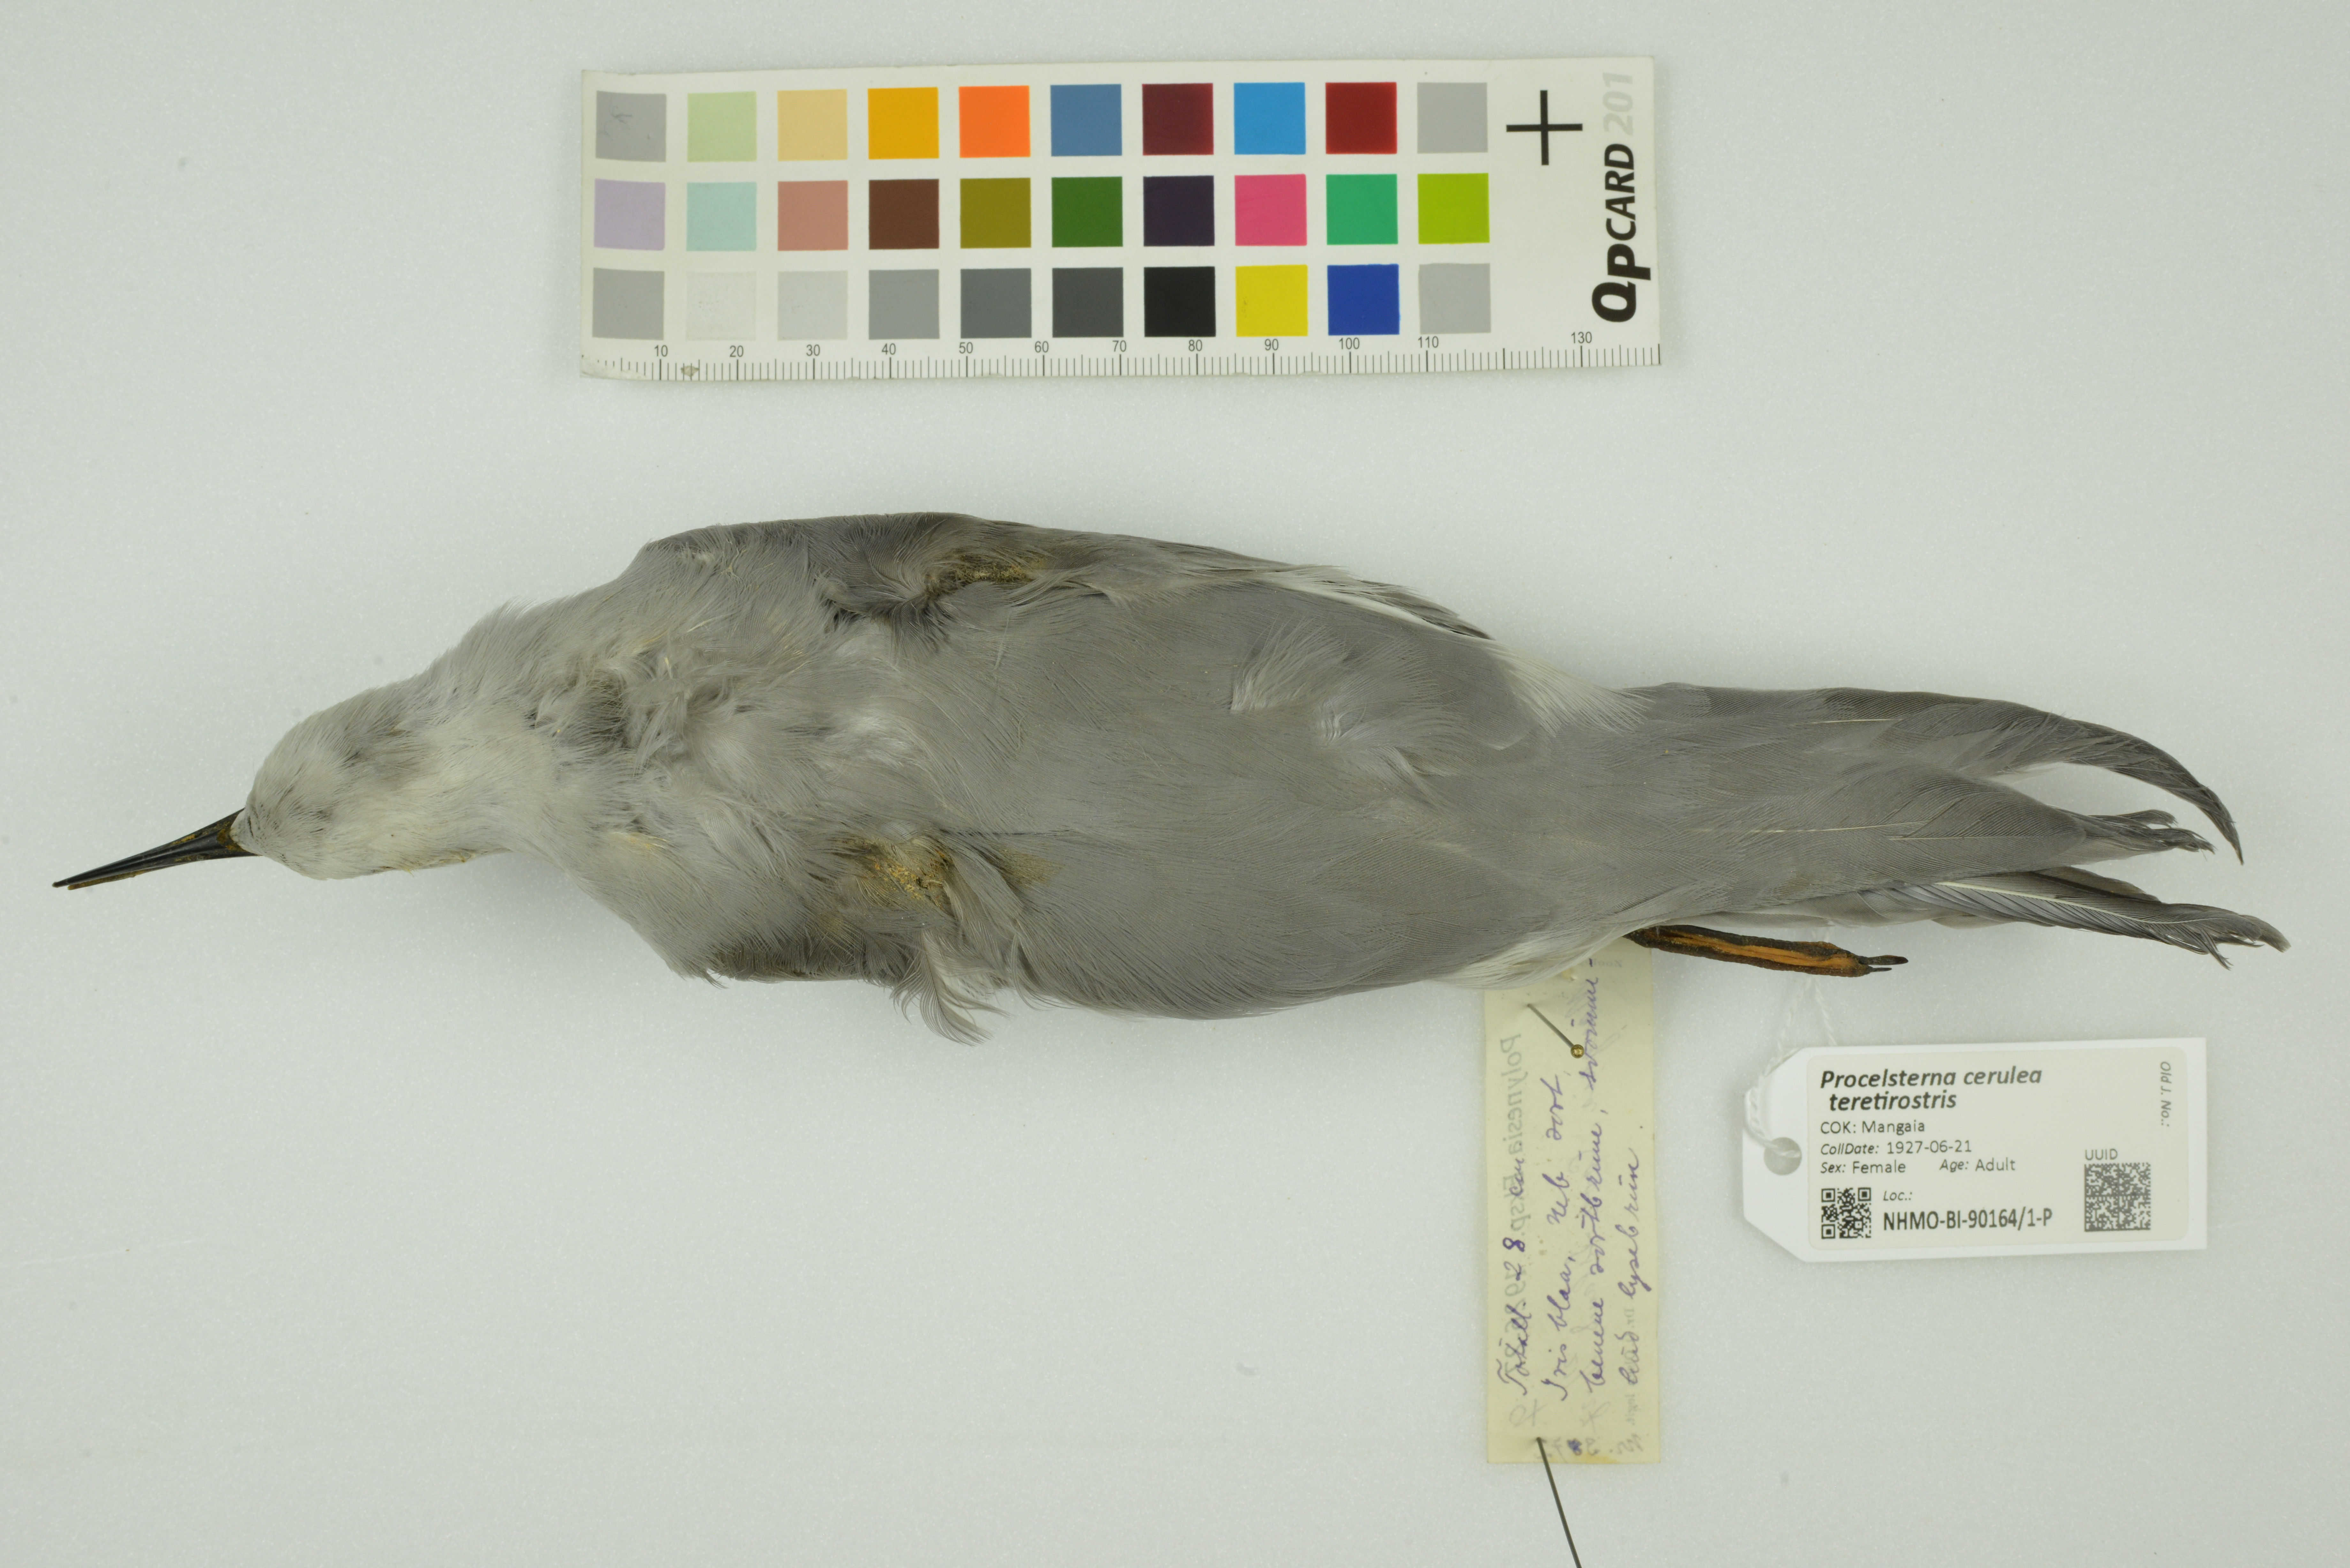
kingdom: Animalia
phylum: Chordata
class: Aves
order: Charadriiformes
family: Laridae
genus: Anous
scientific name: Anous ceruleus
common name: Blue-gray noddy
